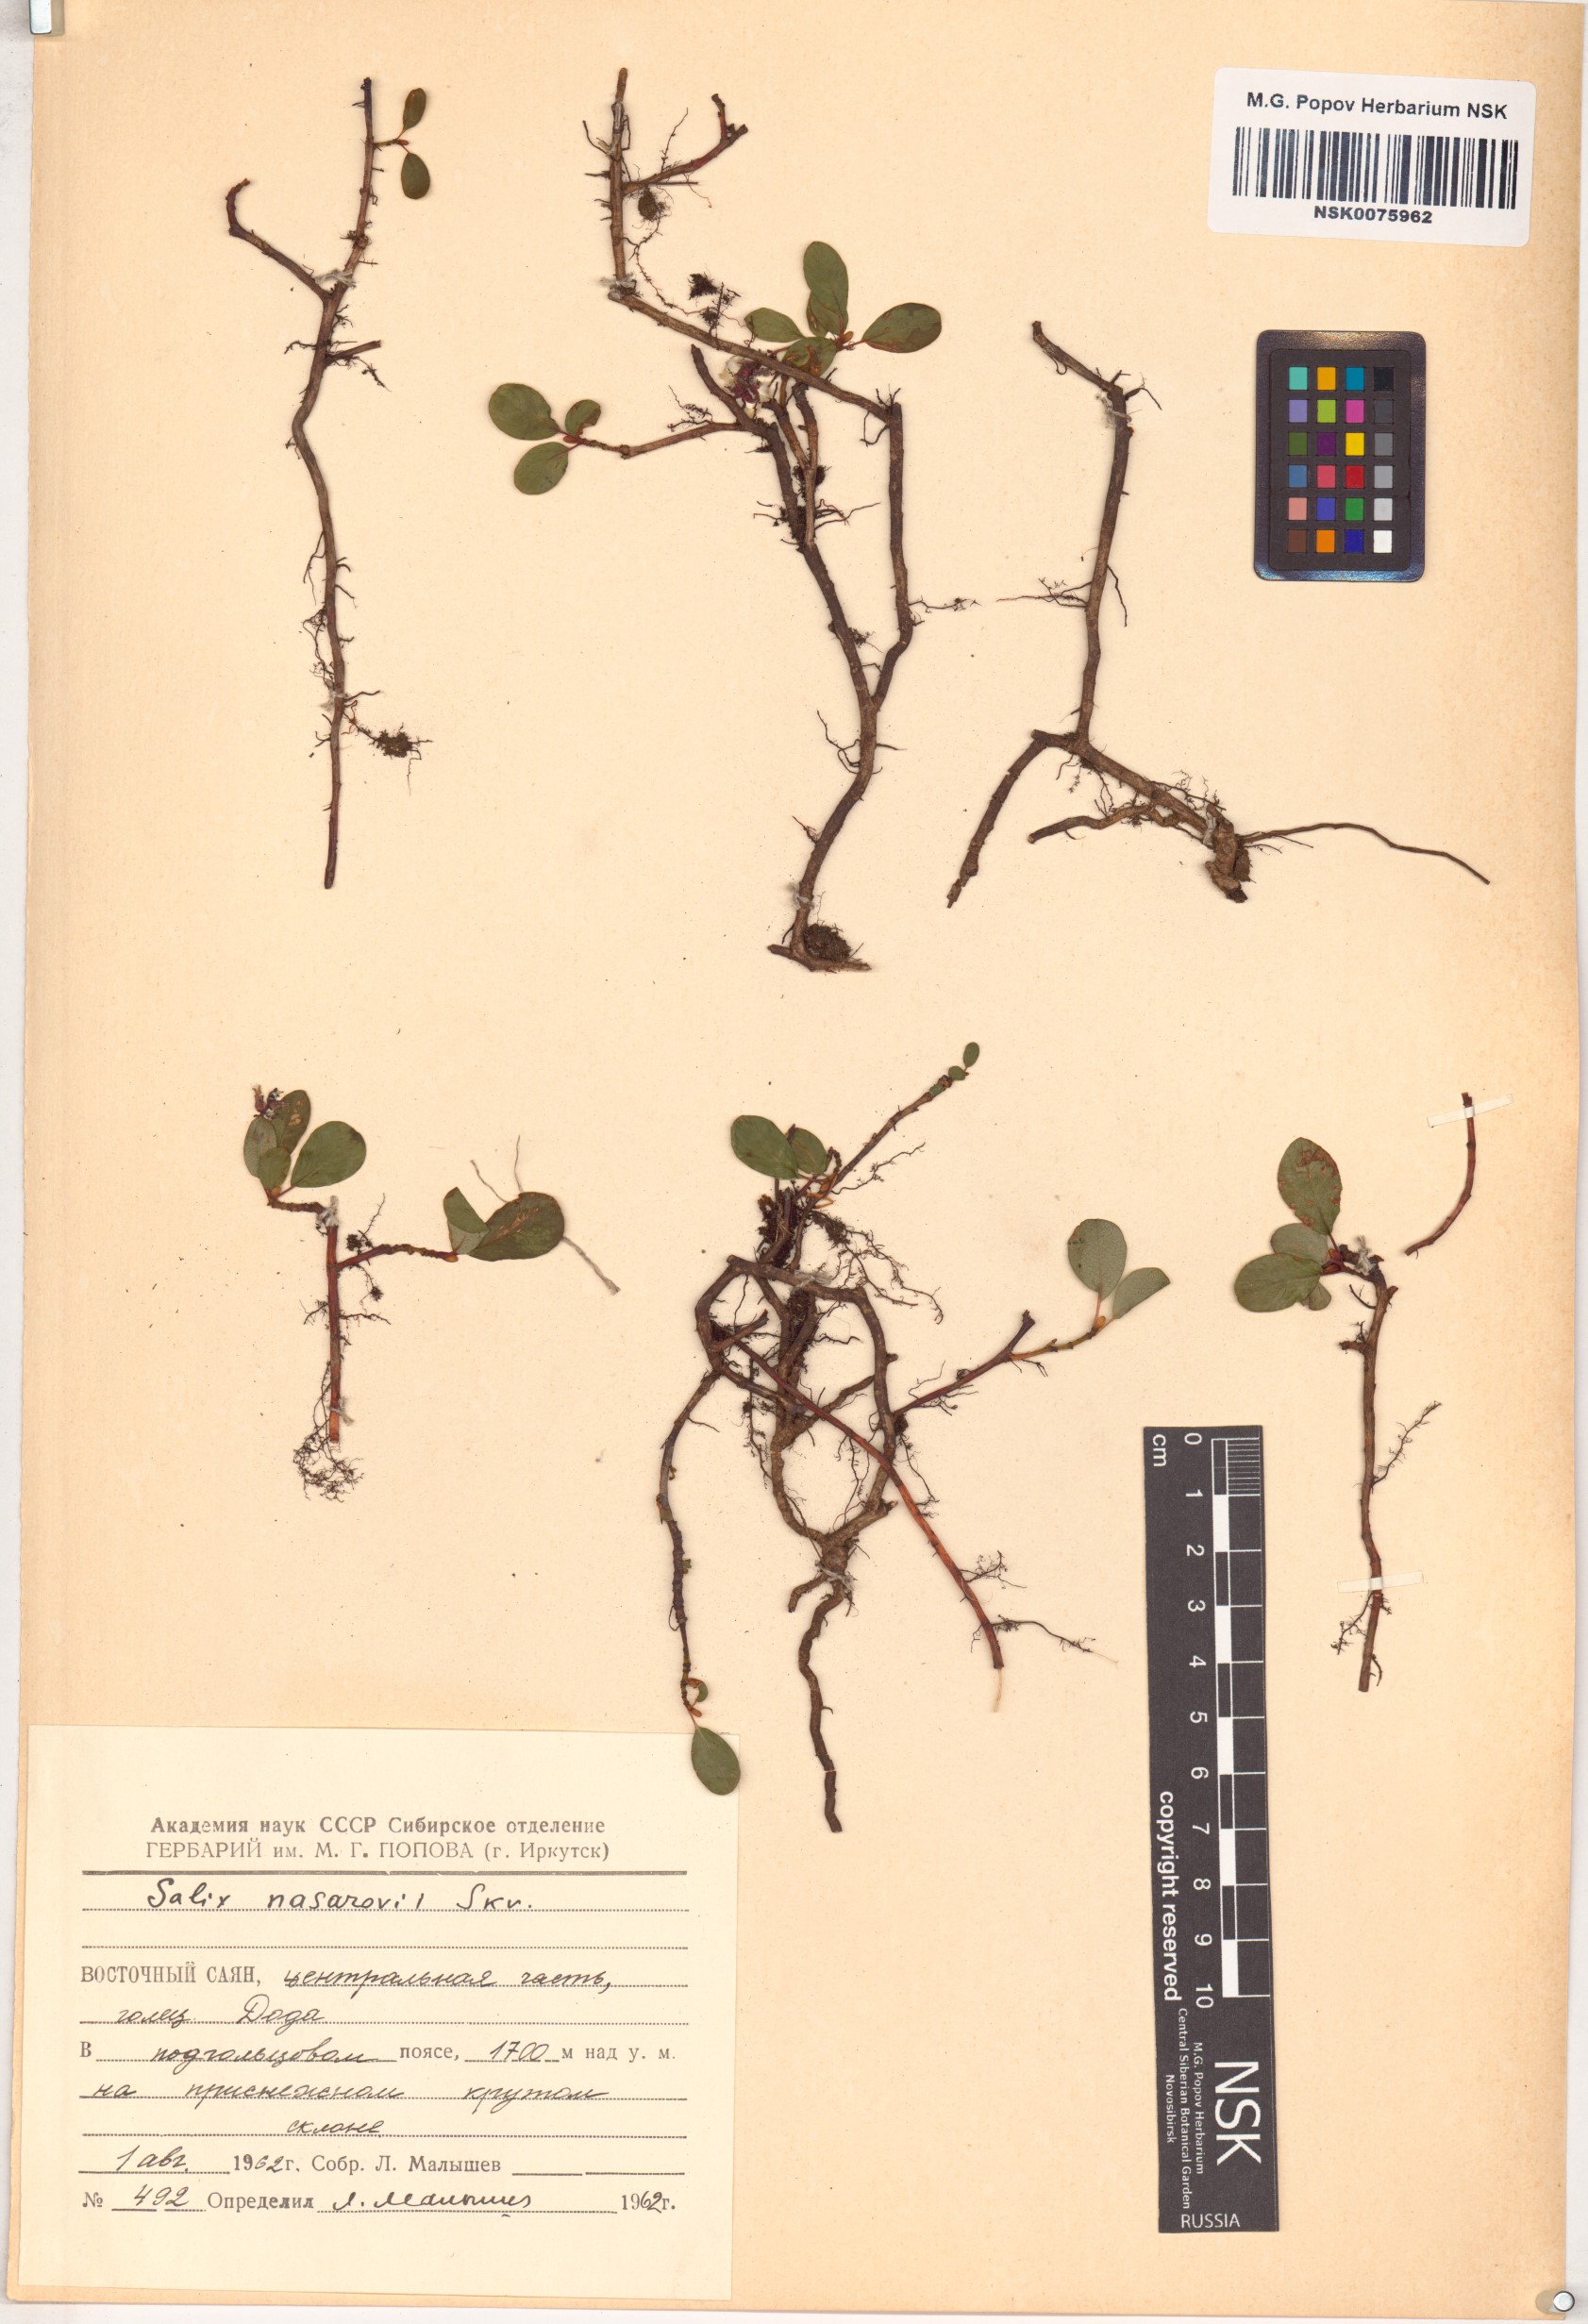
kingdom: Plantae
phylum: Tracheophyta
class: Magnoliopsida
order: Malpighiales
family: Salicaceae
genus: Salix
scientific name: Salix nasarovii
